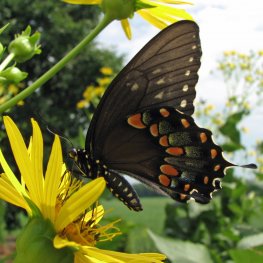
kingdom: Animalia
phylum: Arthropoda
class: Insecta
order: Lepidoptera
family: Papilionidae
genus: Pterourus
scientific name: Pterourus troilus
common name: Spicebush Swallowtail
